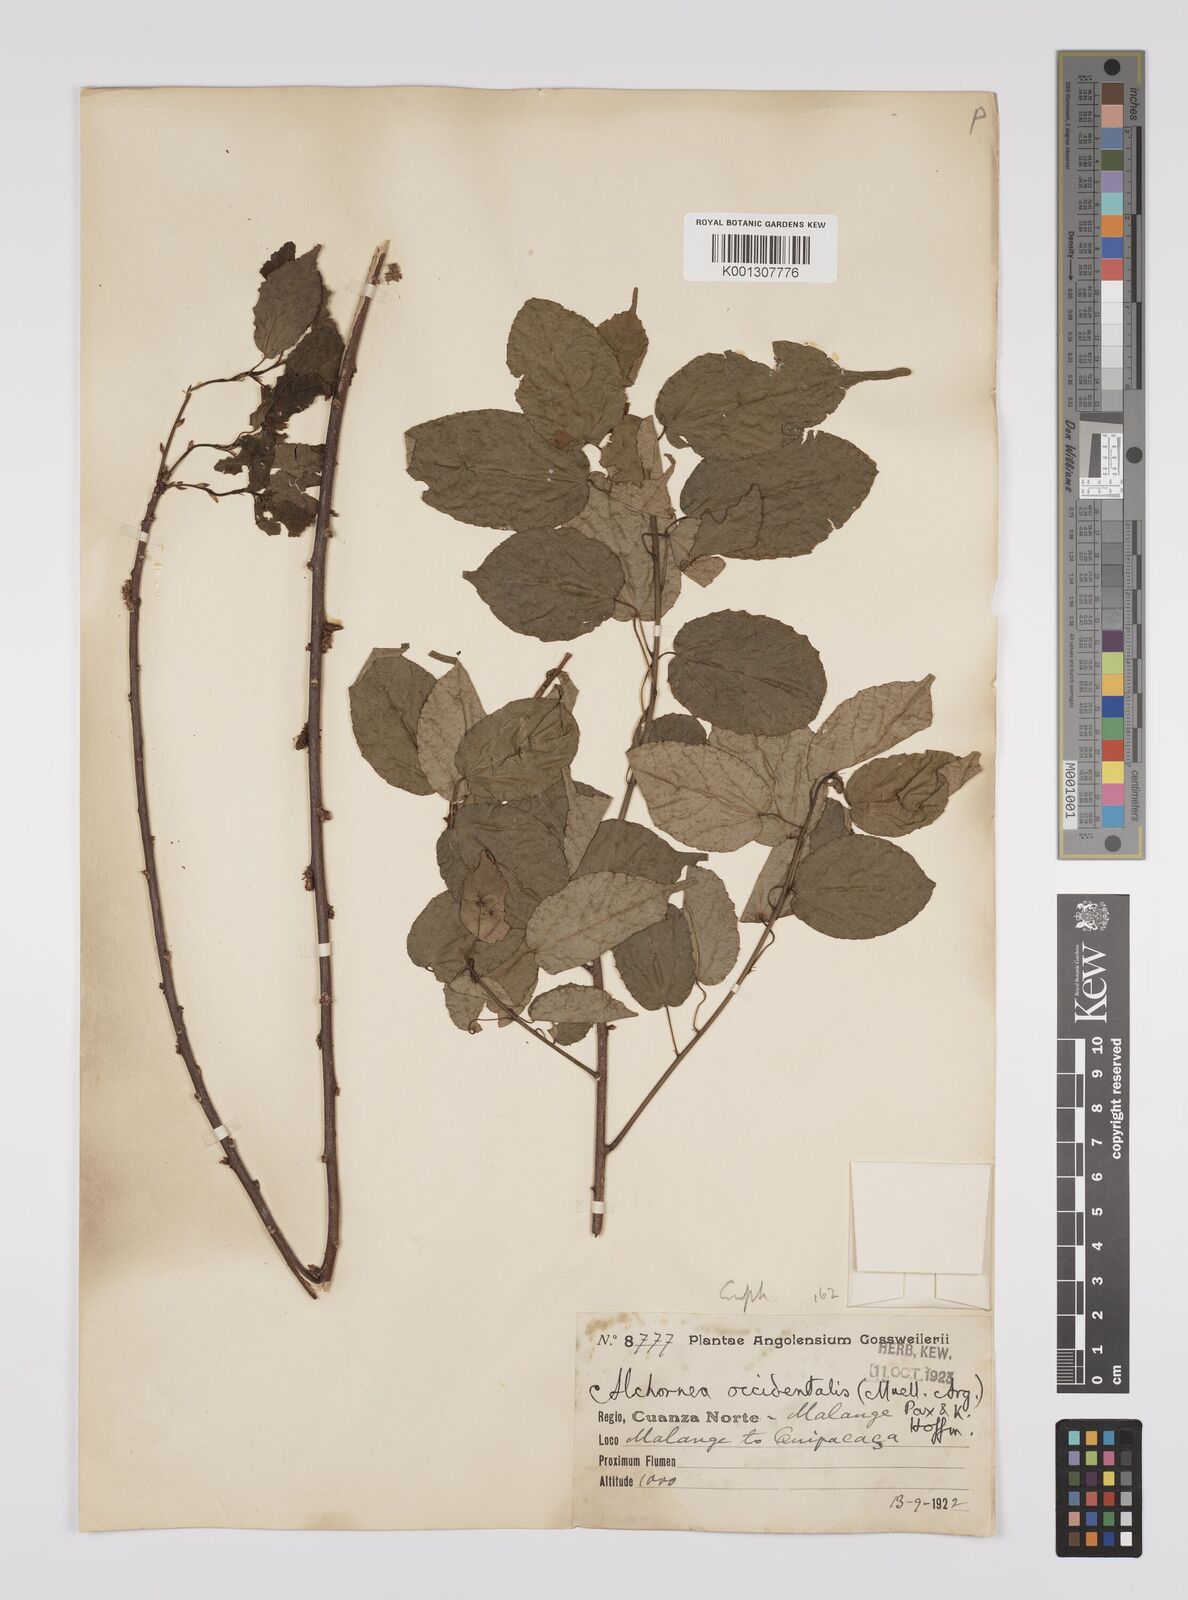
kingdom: Plantae
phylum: Tracheophyta
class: Magnoliopsida
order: Malpighiales
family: Euphorbiaceae
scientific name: Euphorbiaceae
